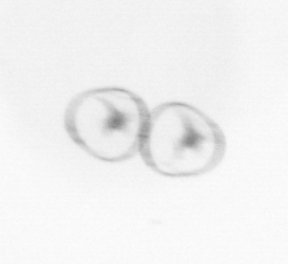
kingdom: Chromista
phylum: Myzozoa
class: Dinophyceae
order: Noctilucales
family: Noctilucaceae
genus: Noctiluca
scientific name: Noctiluca scintillans
